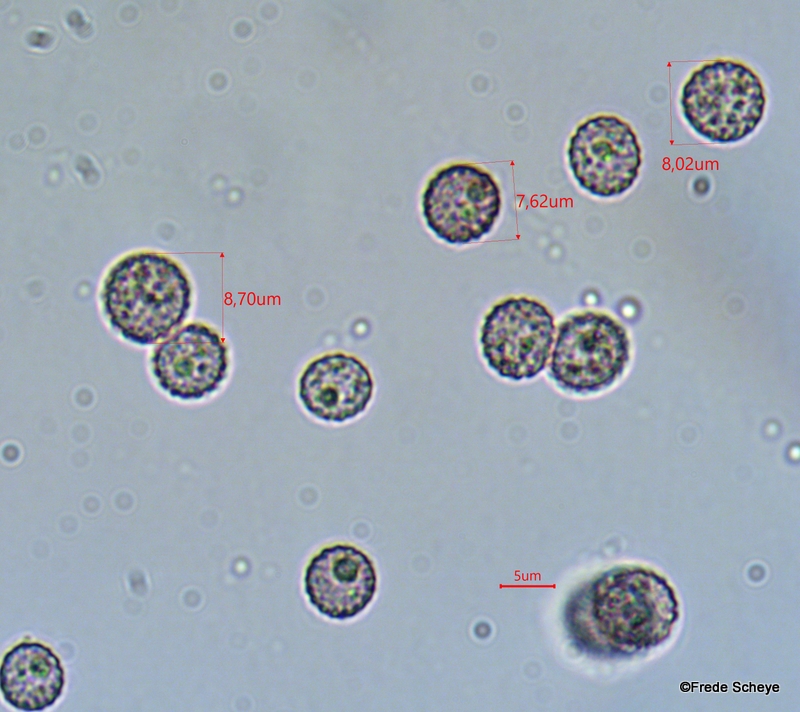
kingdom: Fungi
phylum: Basidiomycota
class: Microbotryomycetes
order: Microbotryales
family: Microbotryaceae
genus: Microbotryum
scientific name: Microbotryum stellariae
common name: fladstjerne-støvbladrust
